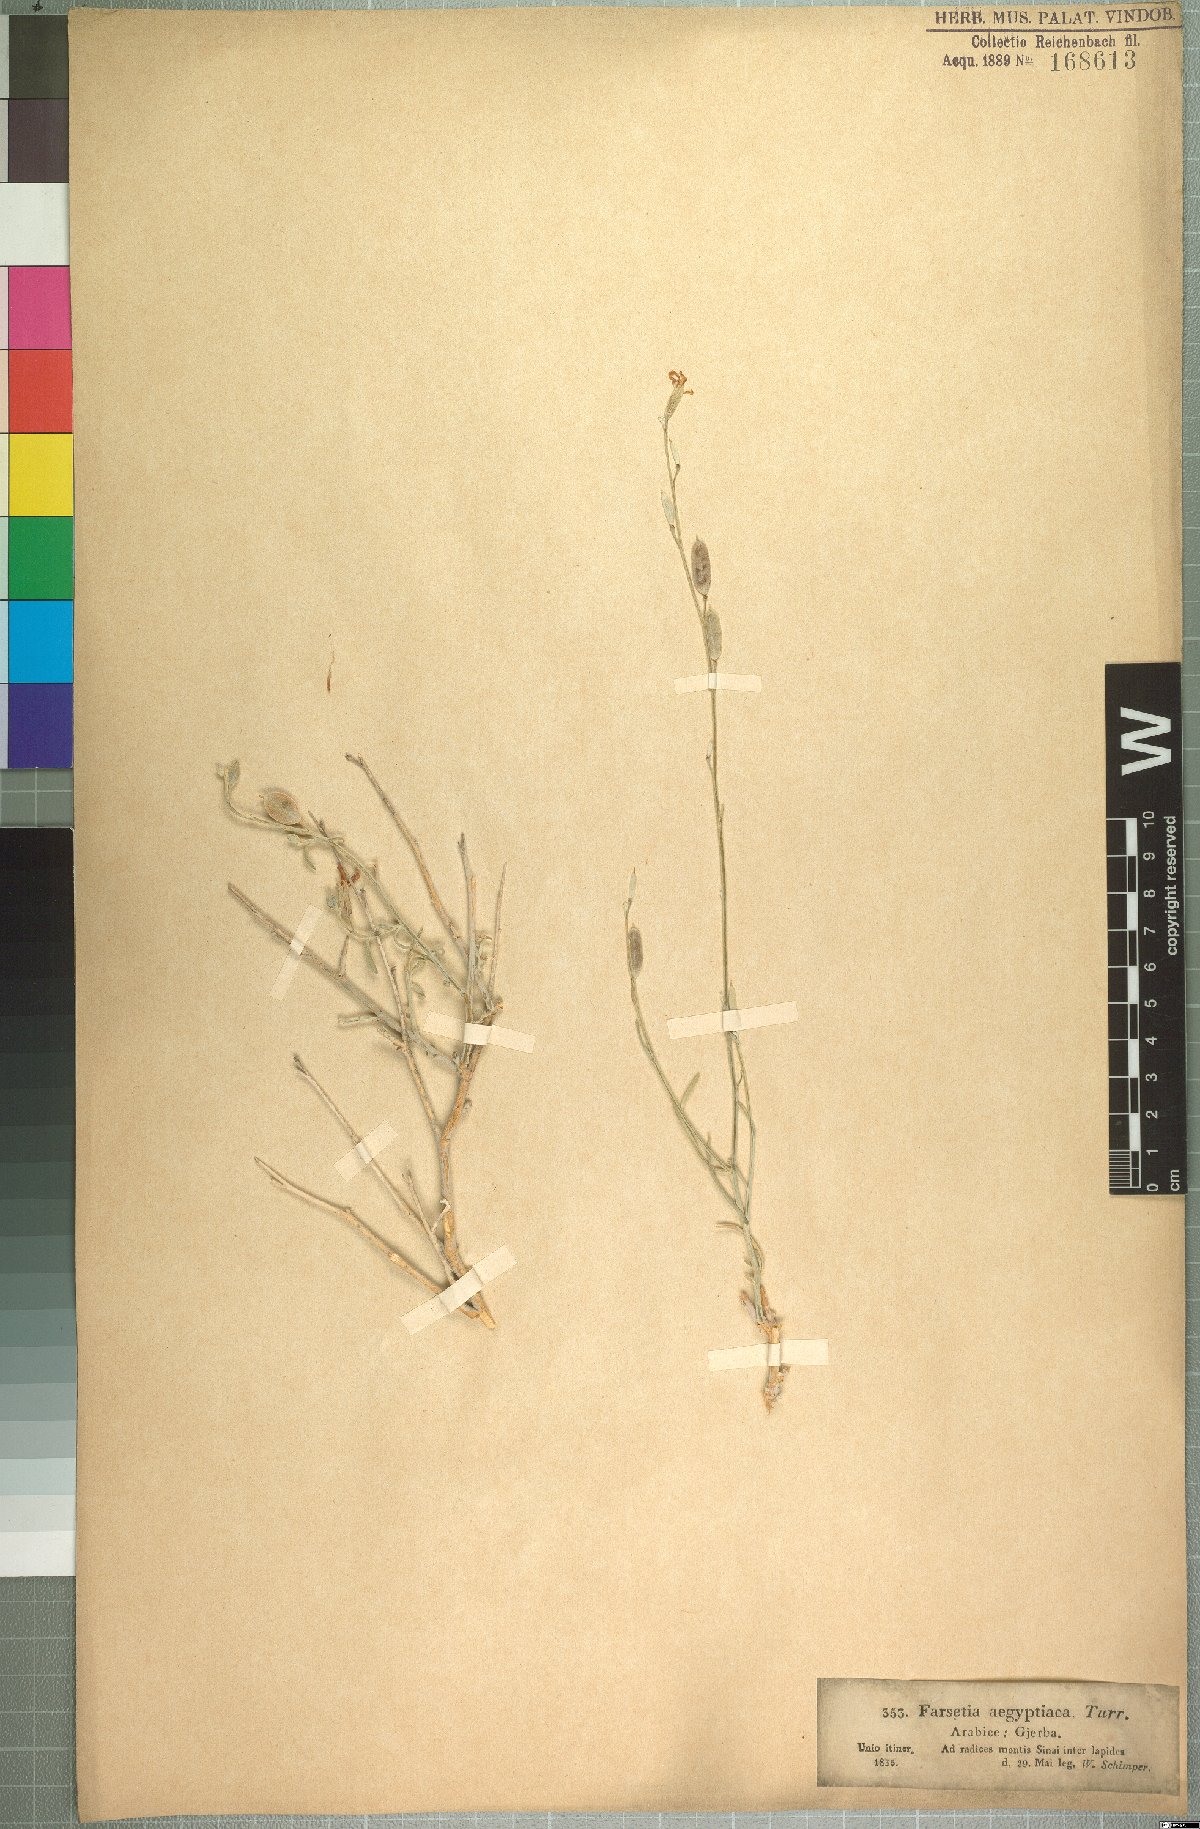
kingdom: Plantae
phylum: Tracheophyta
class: Magnoliopsida
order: Brassicales
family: Brassicaceae
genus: Farsetia
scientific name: Farsetia aegyptia
